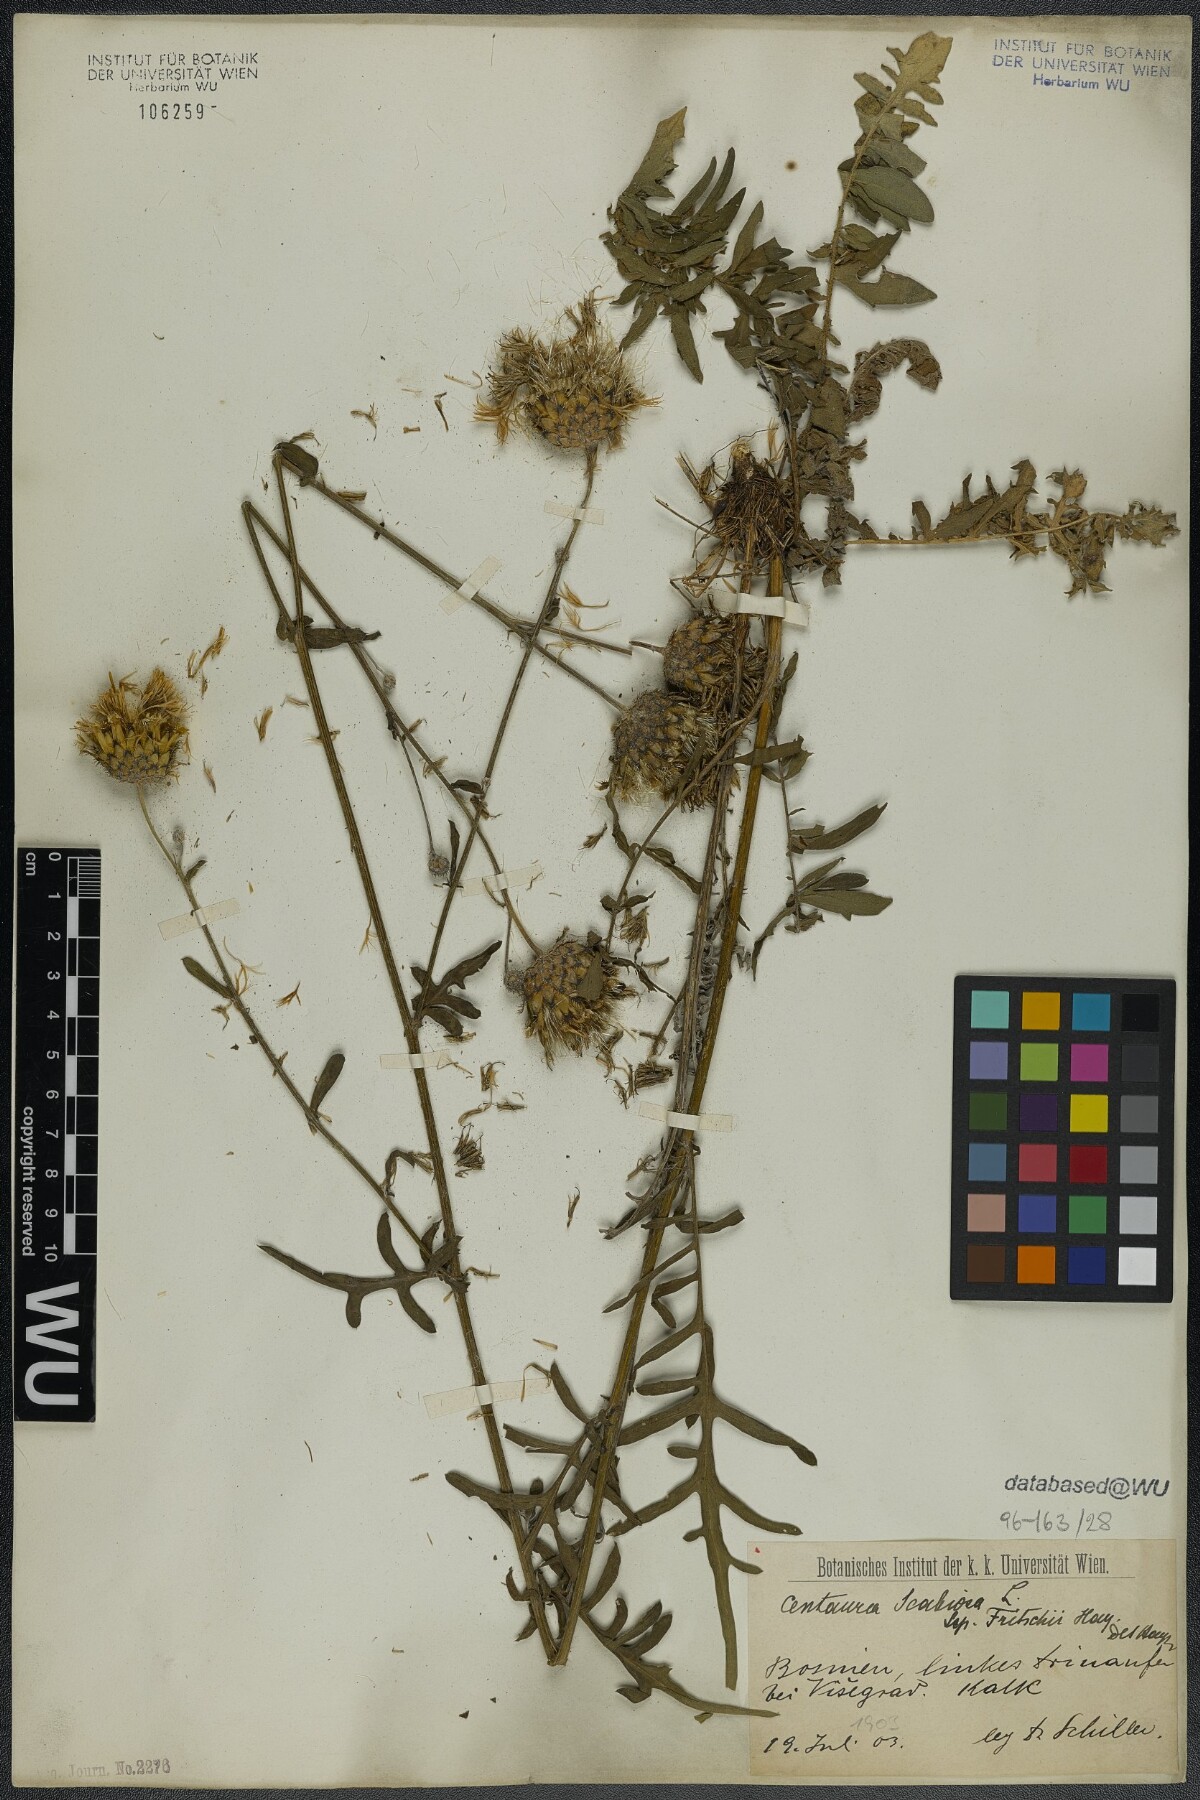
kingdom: Plantae
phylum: Tracheophyta
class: Magnoliopsida
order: Asterales
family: Asteraceae
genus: Centaurea
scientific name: Centaurea scabiosa
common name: Greater knapweed
